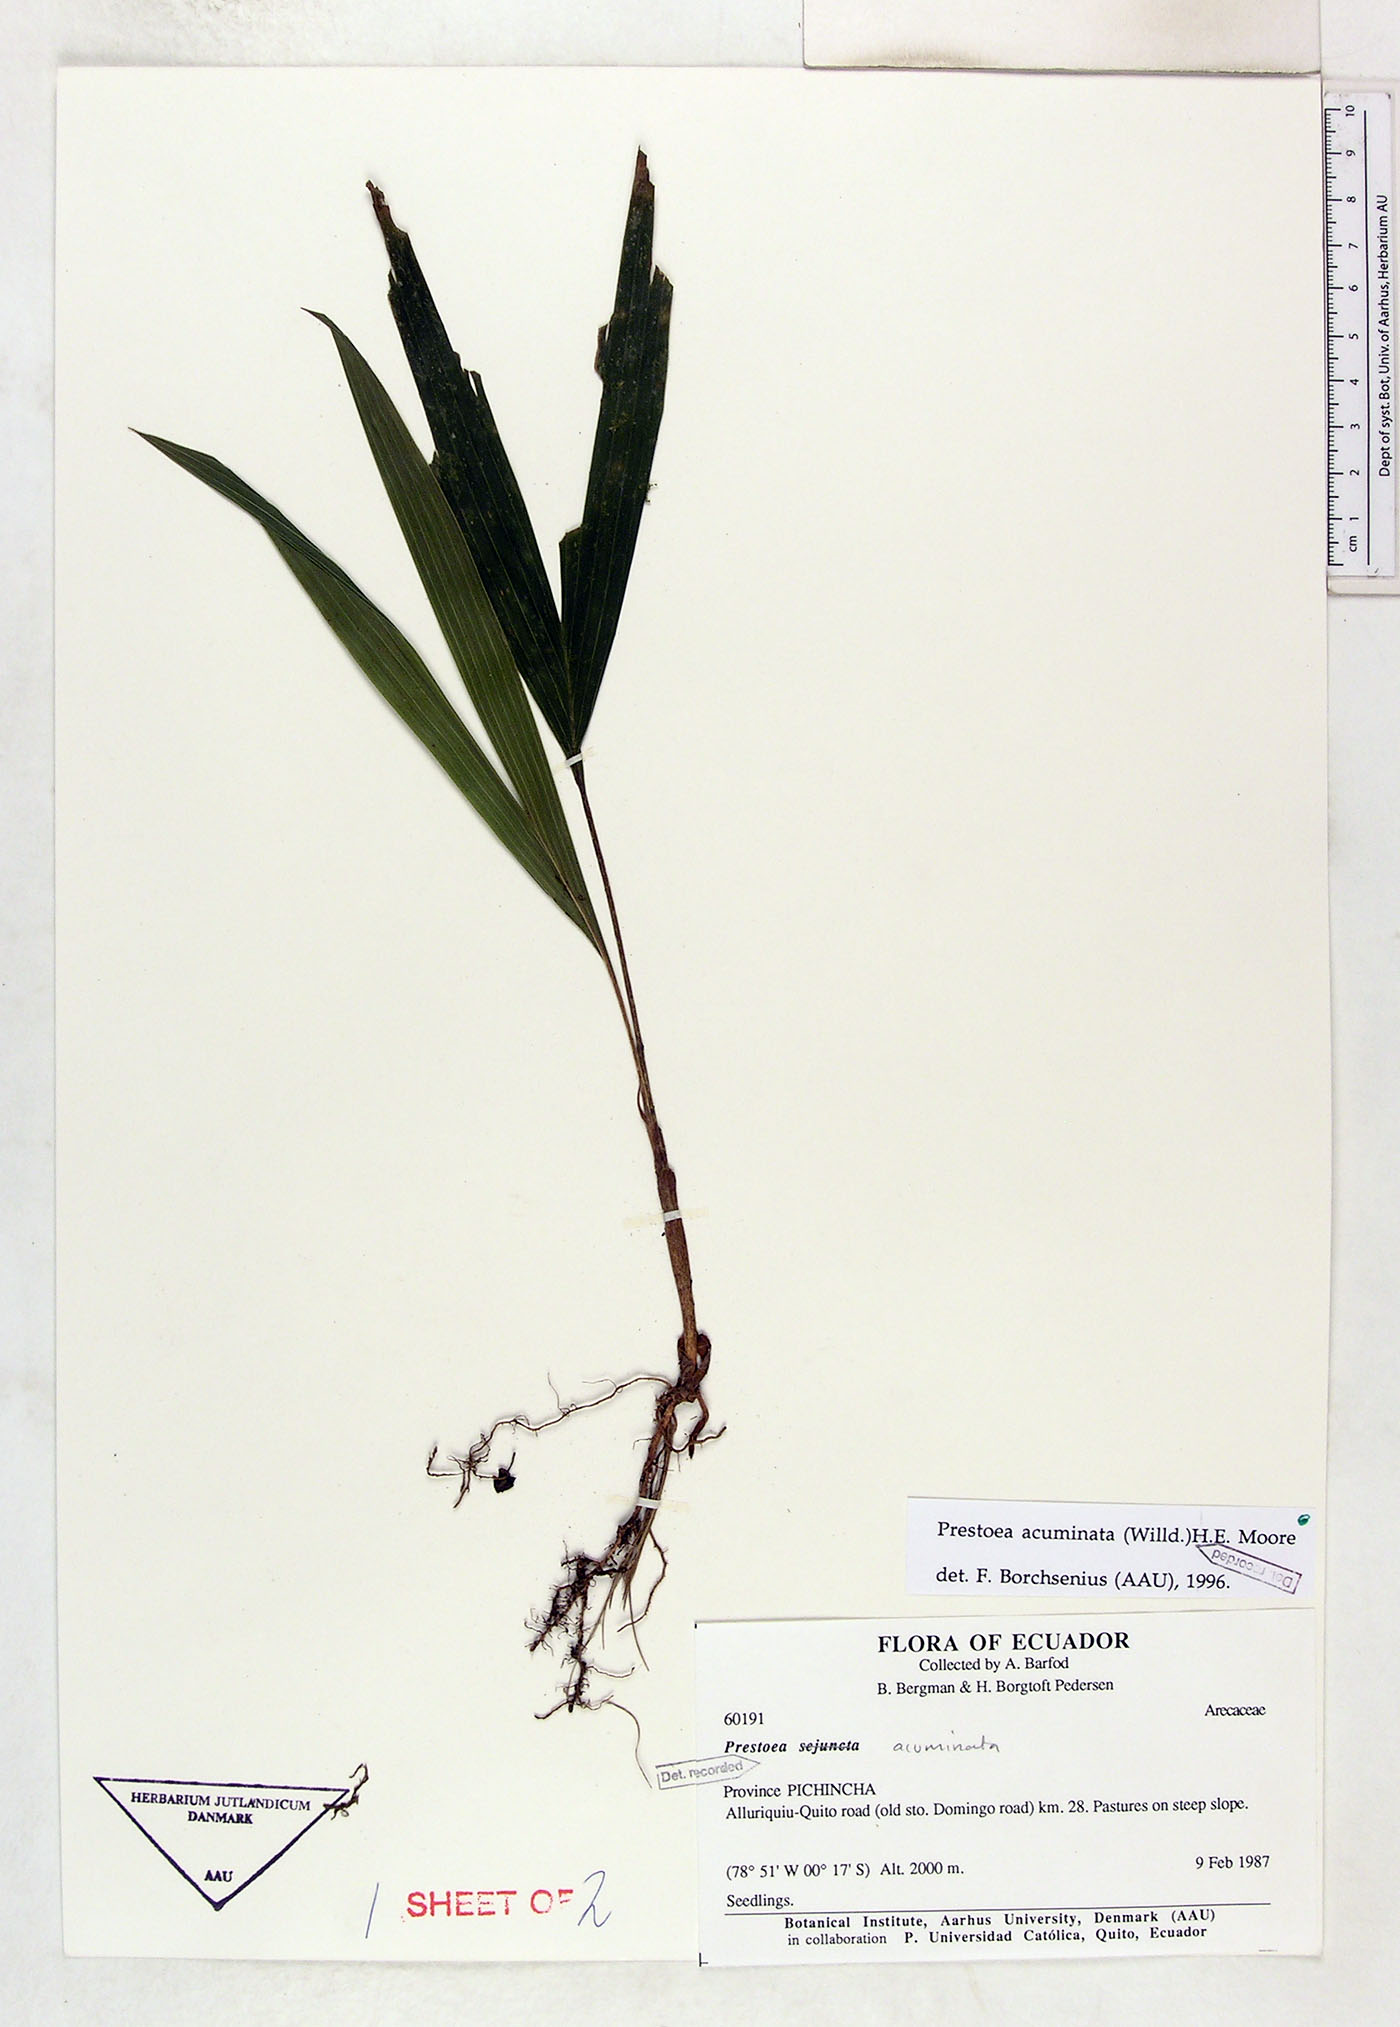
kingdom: Plantae
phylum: Tracheophyta
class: Liliopsida
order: Arecales
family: Arecaceae
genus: Prestoea
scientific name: Prestoea acuminata
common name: Sierran palm
